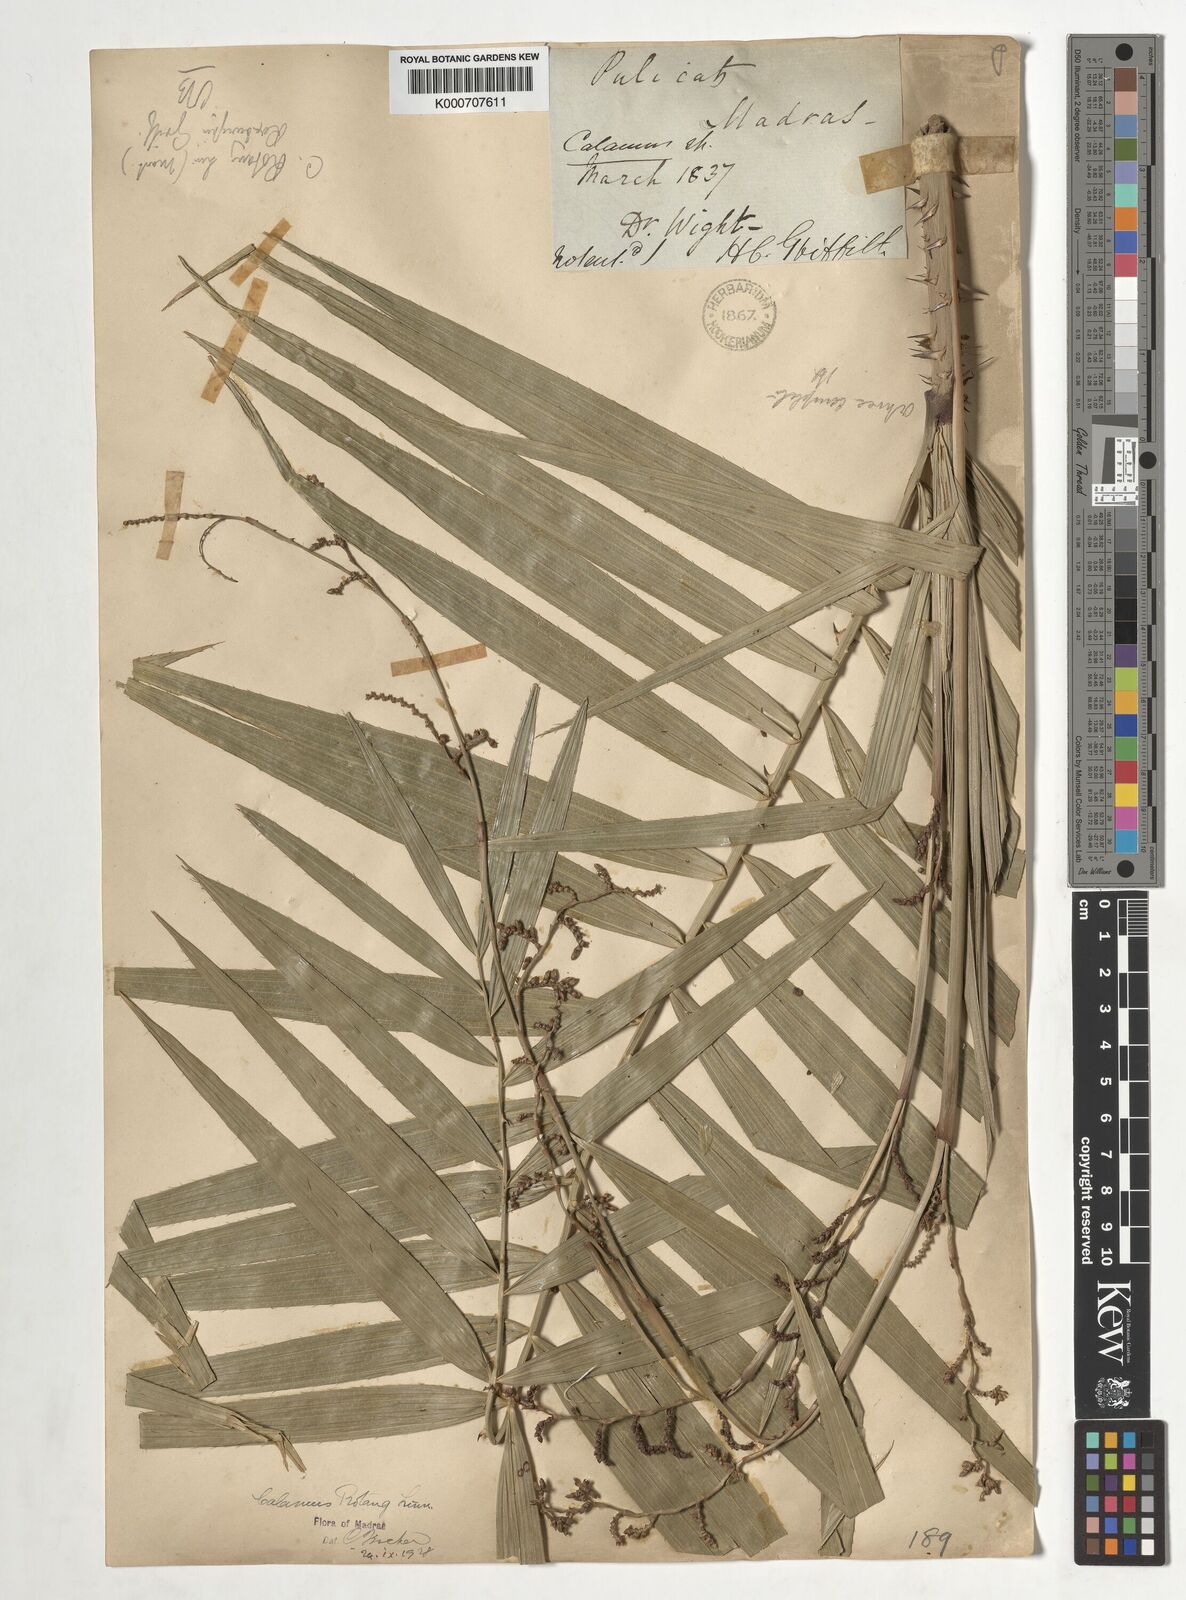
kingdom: Plantae
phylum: Tracheophyta
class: Liliopsida
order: Arecales
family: Arecaceae
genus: Calamus
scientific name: Calamus rotang
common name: Rattan cane
